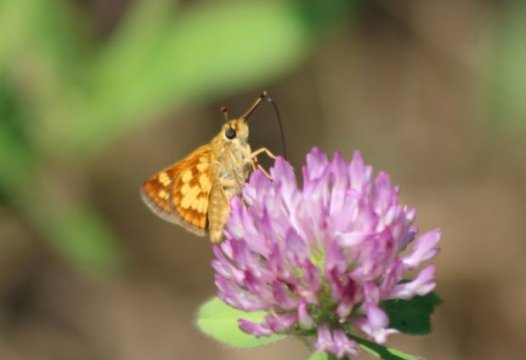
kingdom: Animalia
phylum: Arthropoda
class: Insecta
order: Lepidoptera
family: Hesperiidae
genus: Polites
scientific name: Polites coras
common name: Peck's Skipper
